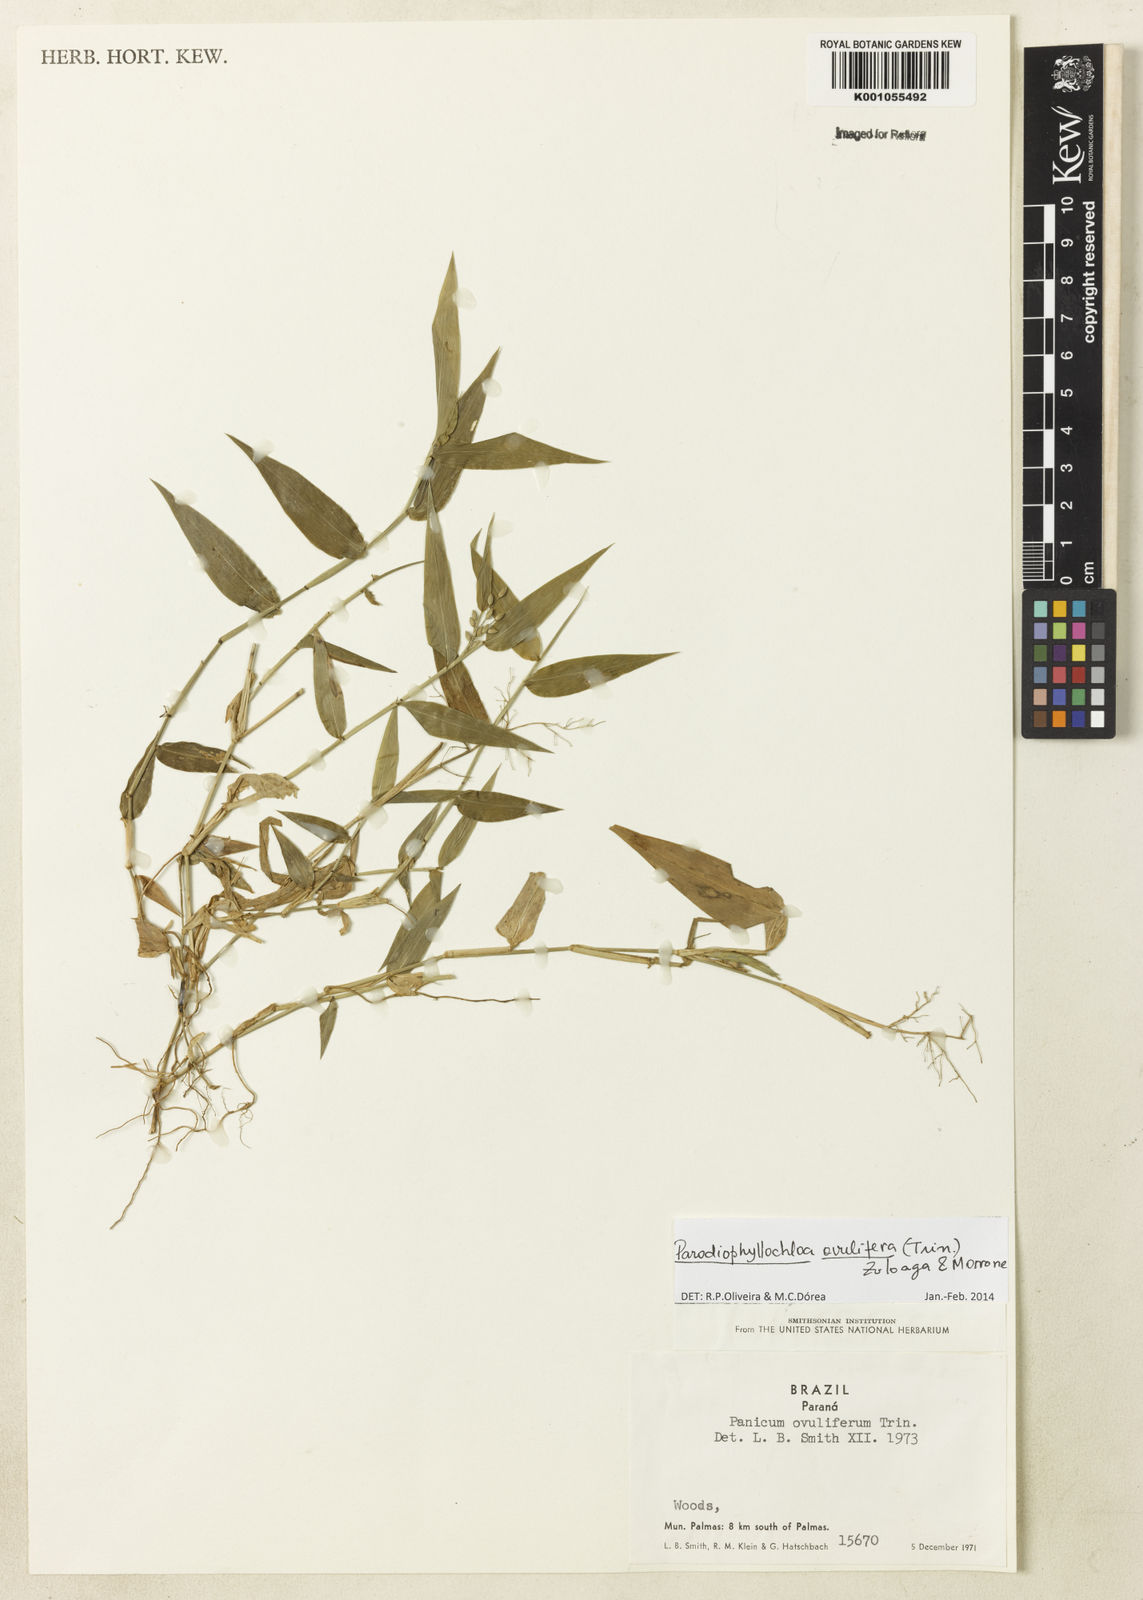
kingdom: Plantae
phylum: Tracheophyta
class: Liliopsida
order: Poales
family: Poaceae
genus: Parodiophyllochloa
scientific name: Parodiophyllochloa ovulifera
